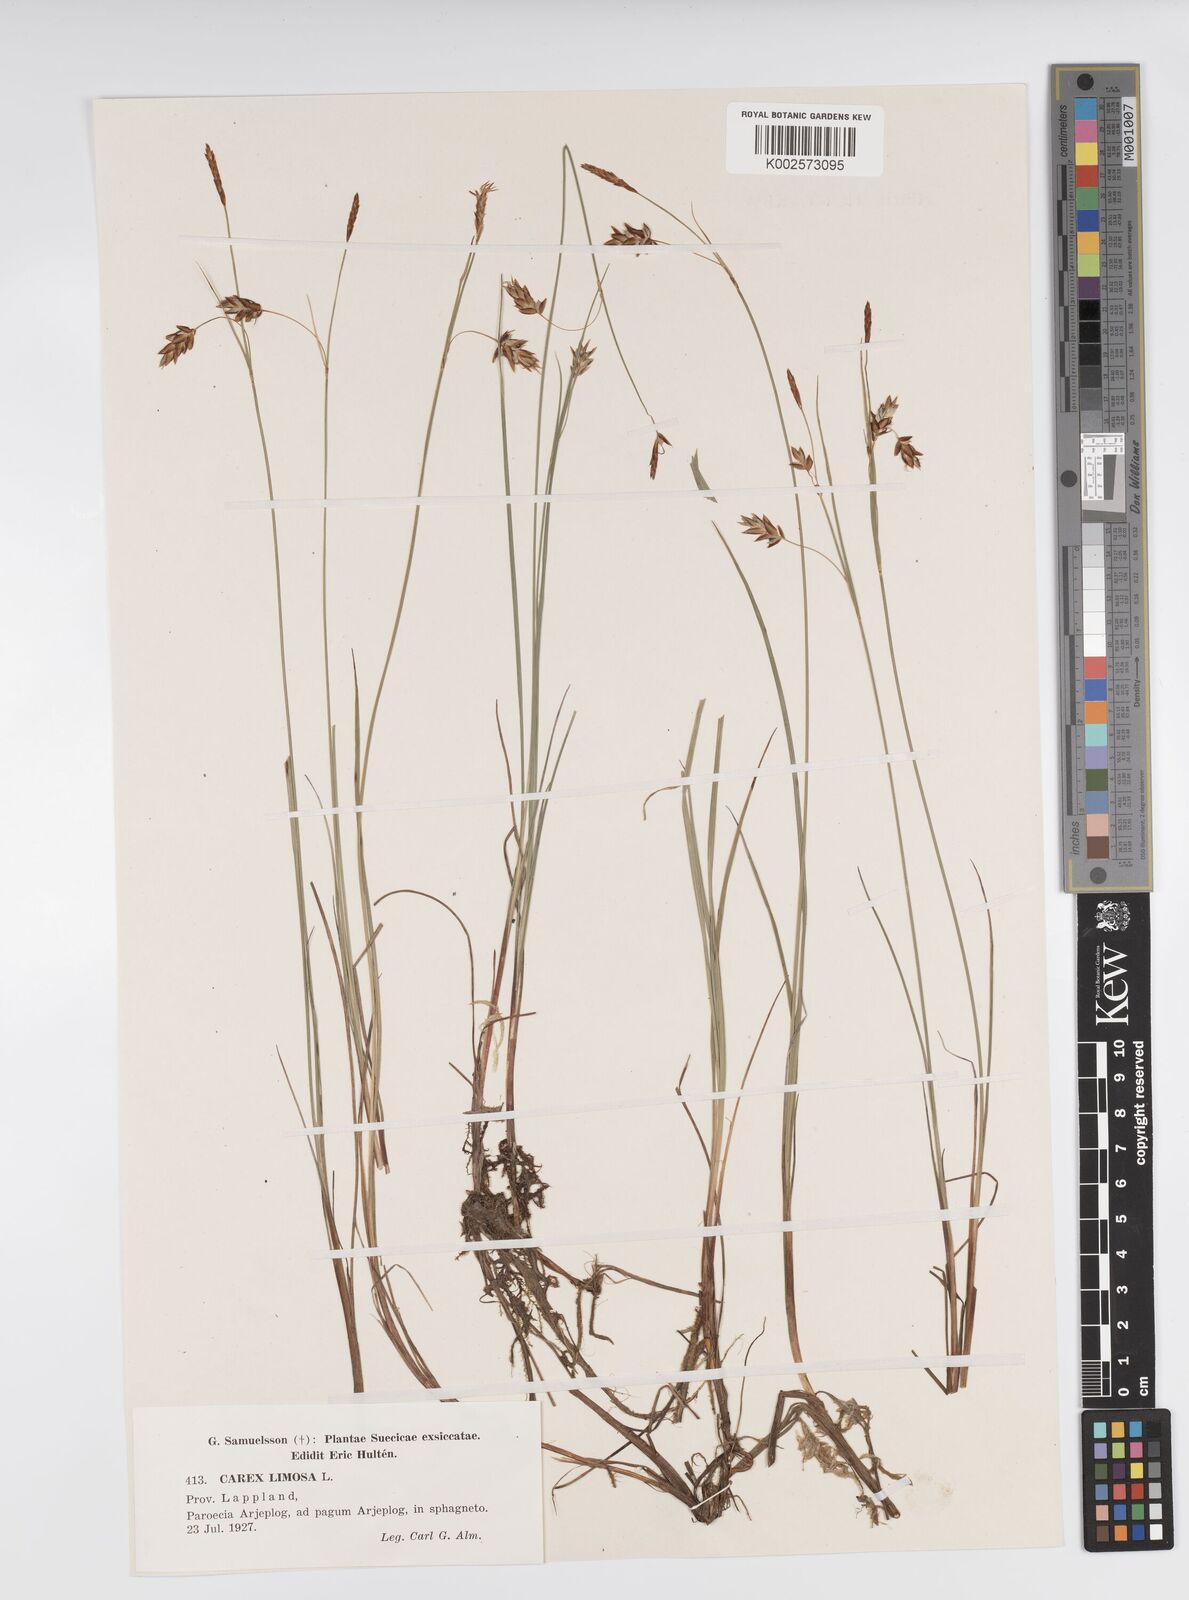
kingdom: Plantae
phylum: Tracheophyta
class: Liliopsida
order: Poales
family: Cyperaceae
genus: Carex
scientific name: Carex limosa
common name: Bog sedge
